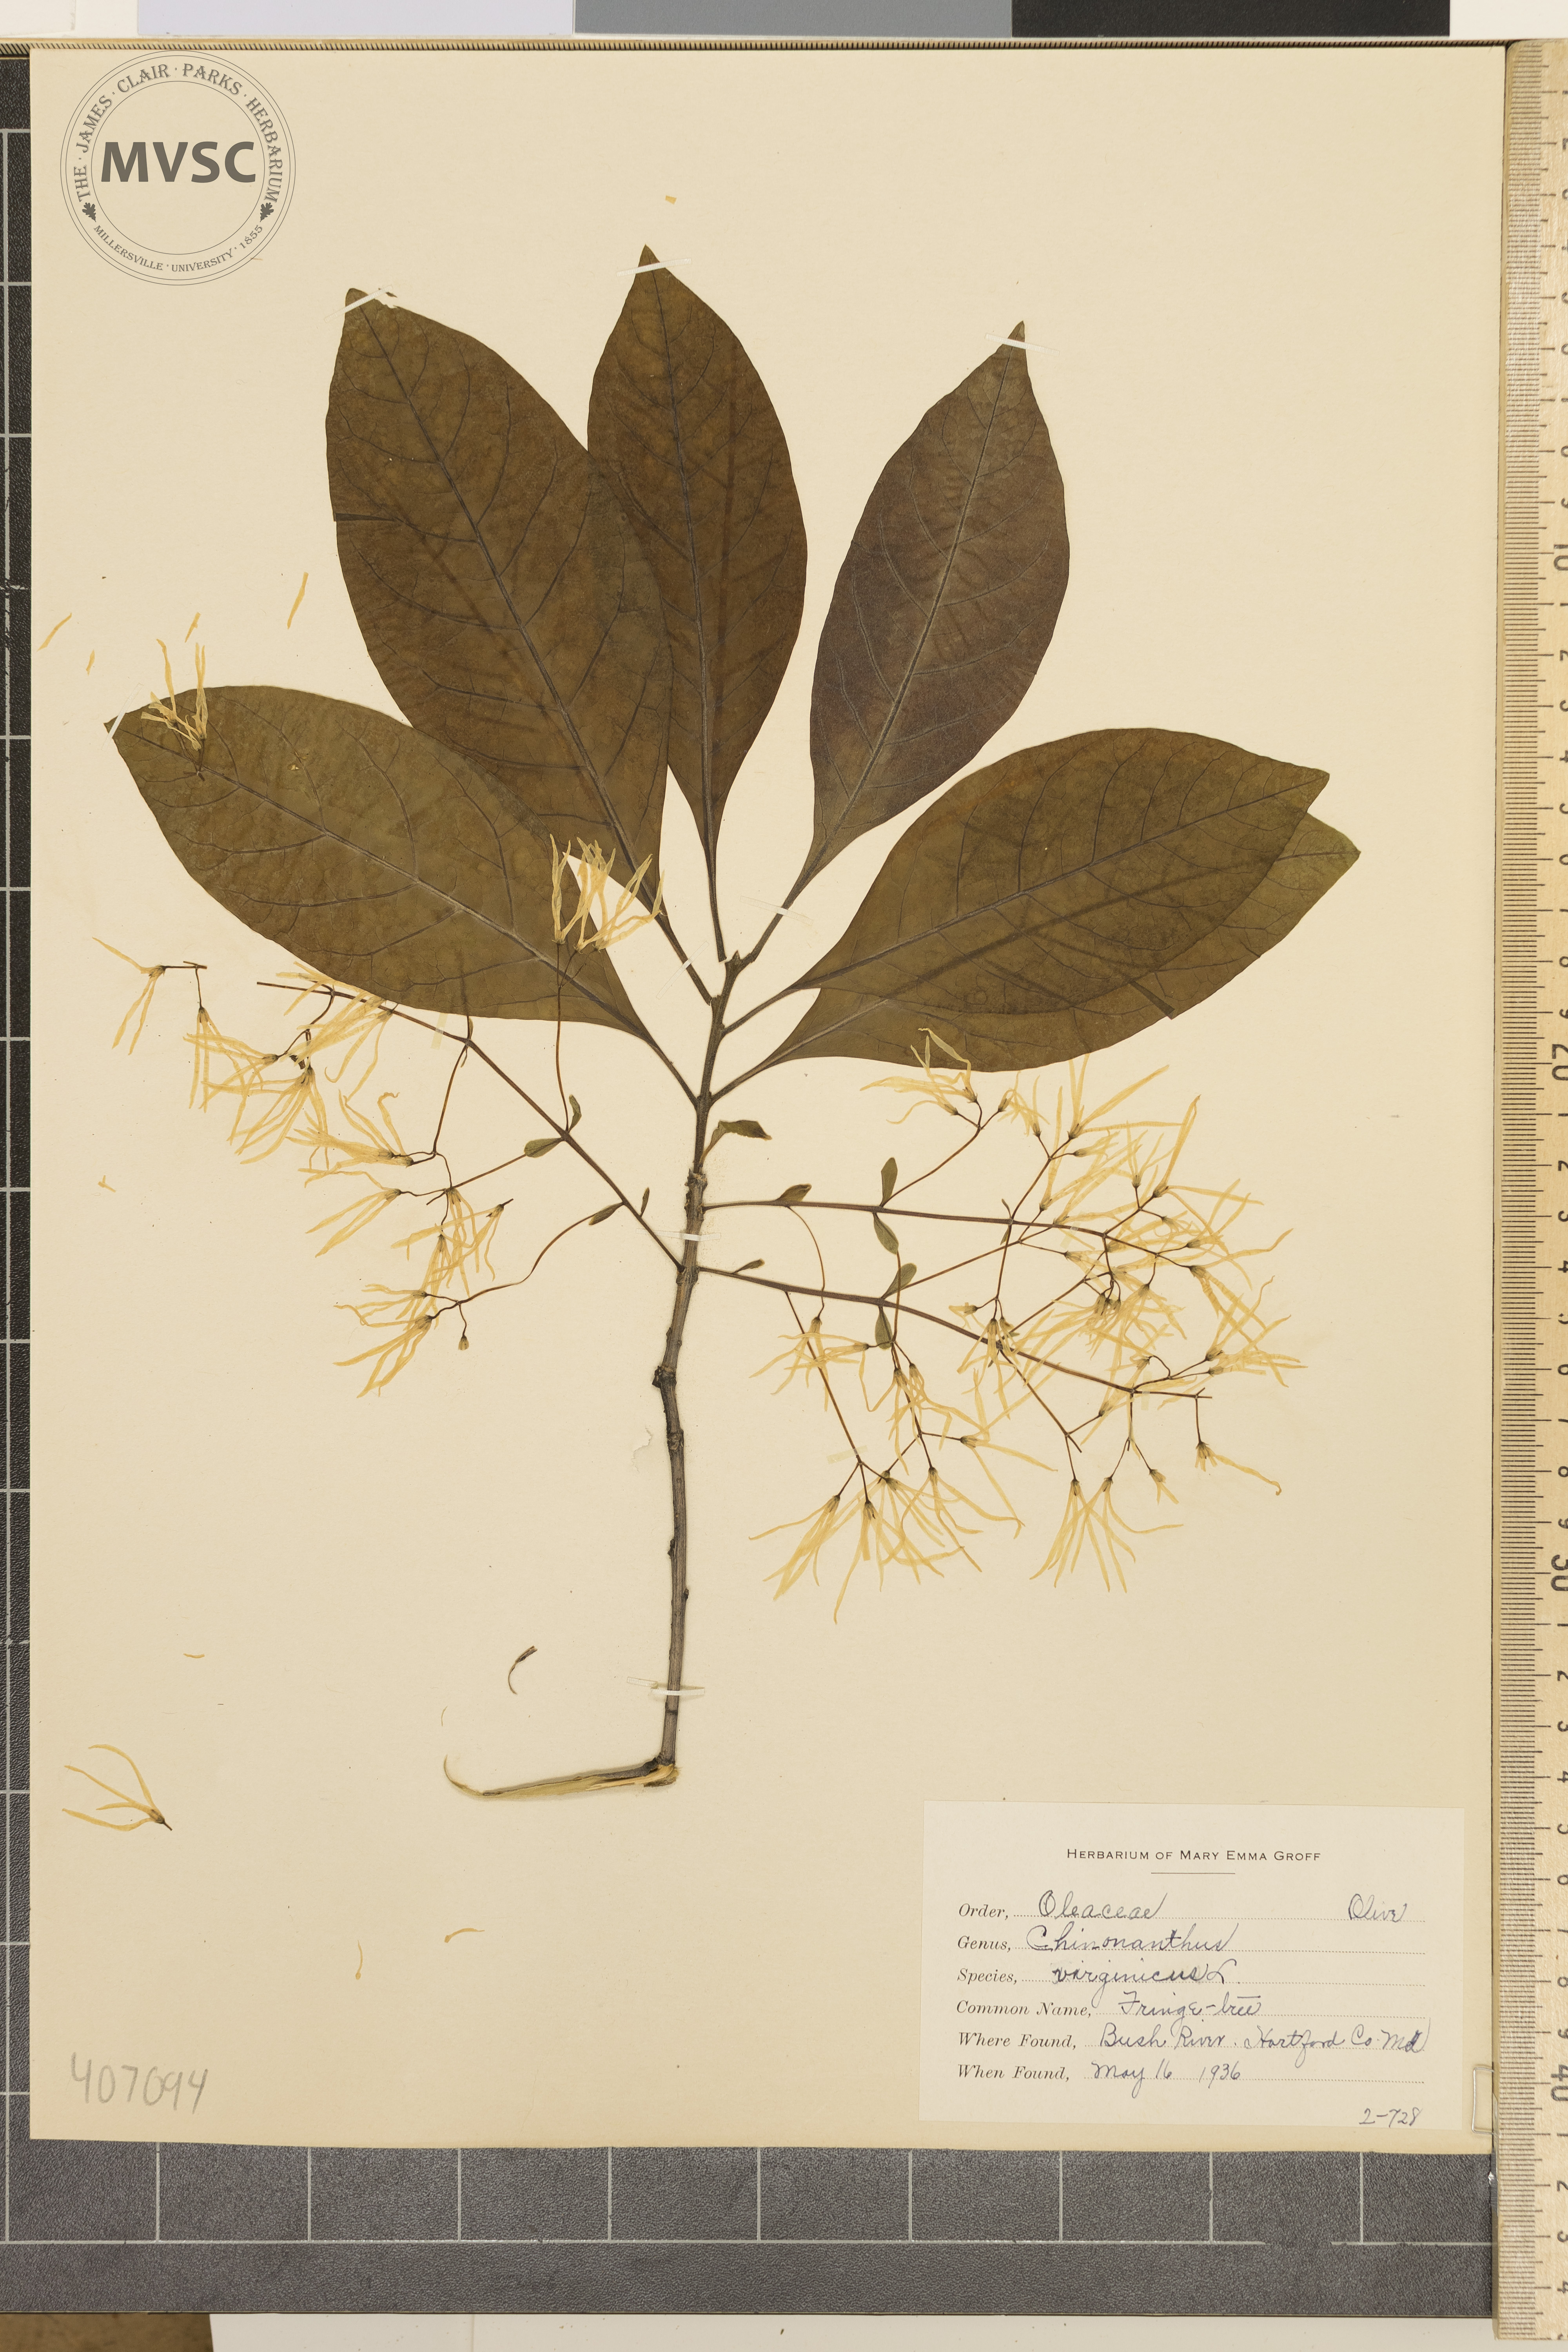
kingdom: Plantae
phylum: Tracheophyta
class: Magnoliopsida
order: Lamiales
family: Oleaceae
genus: Chionanthus
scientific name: Chionanthus virginicus
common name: Fringe Tree
